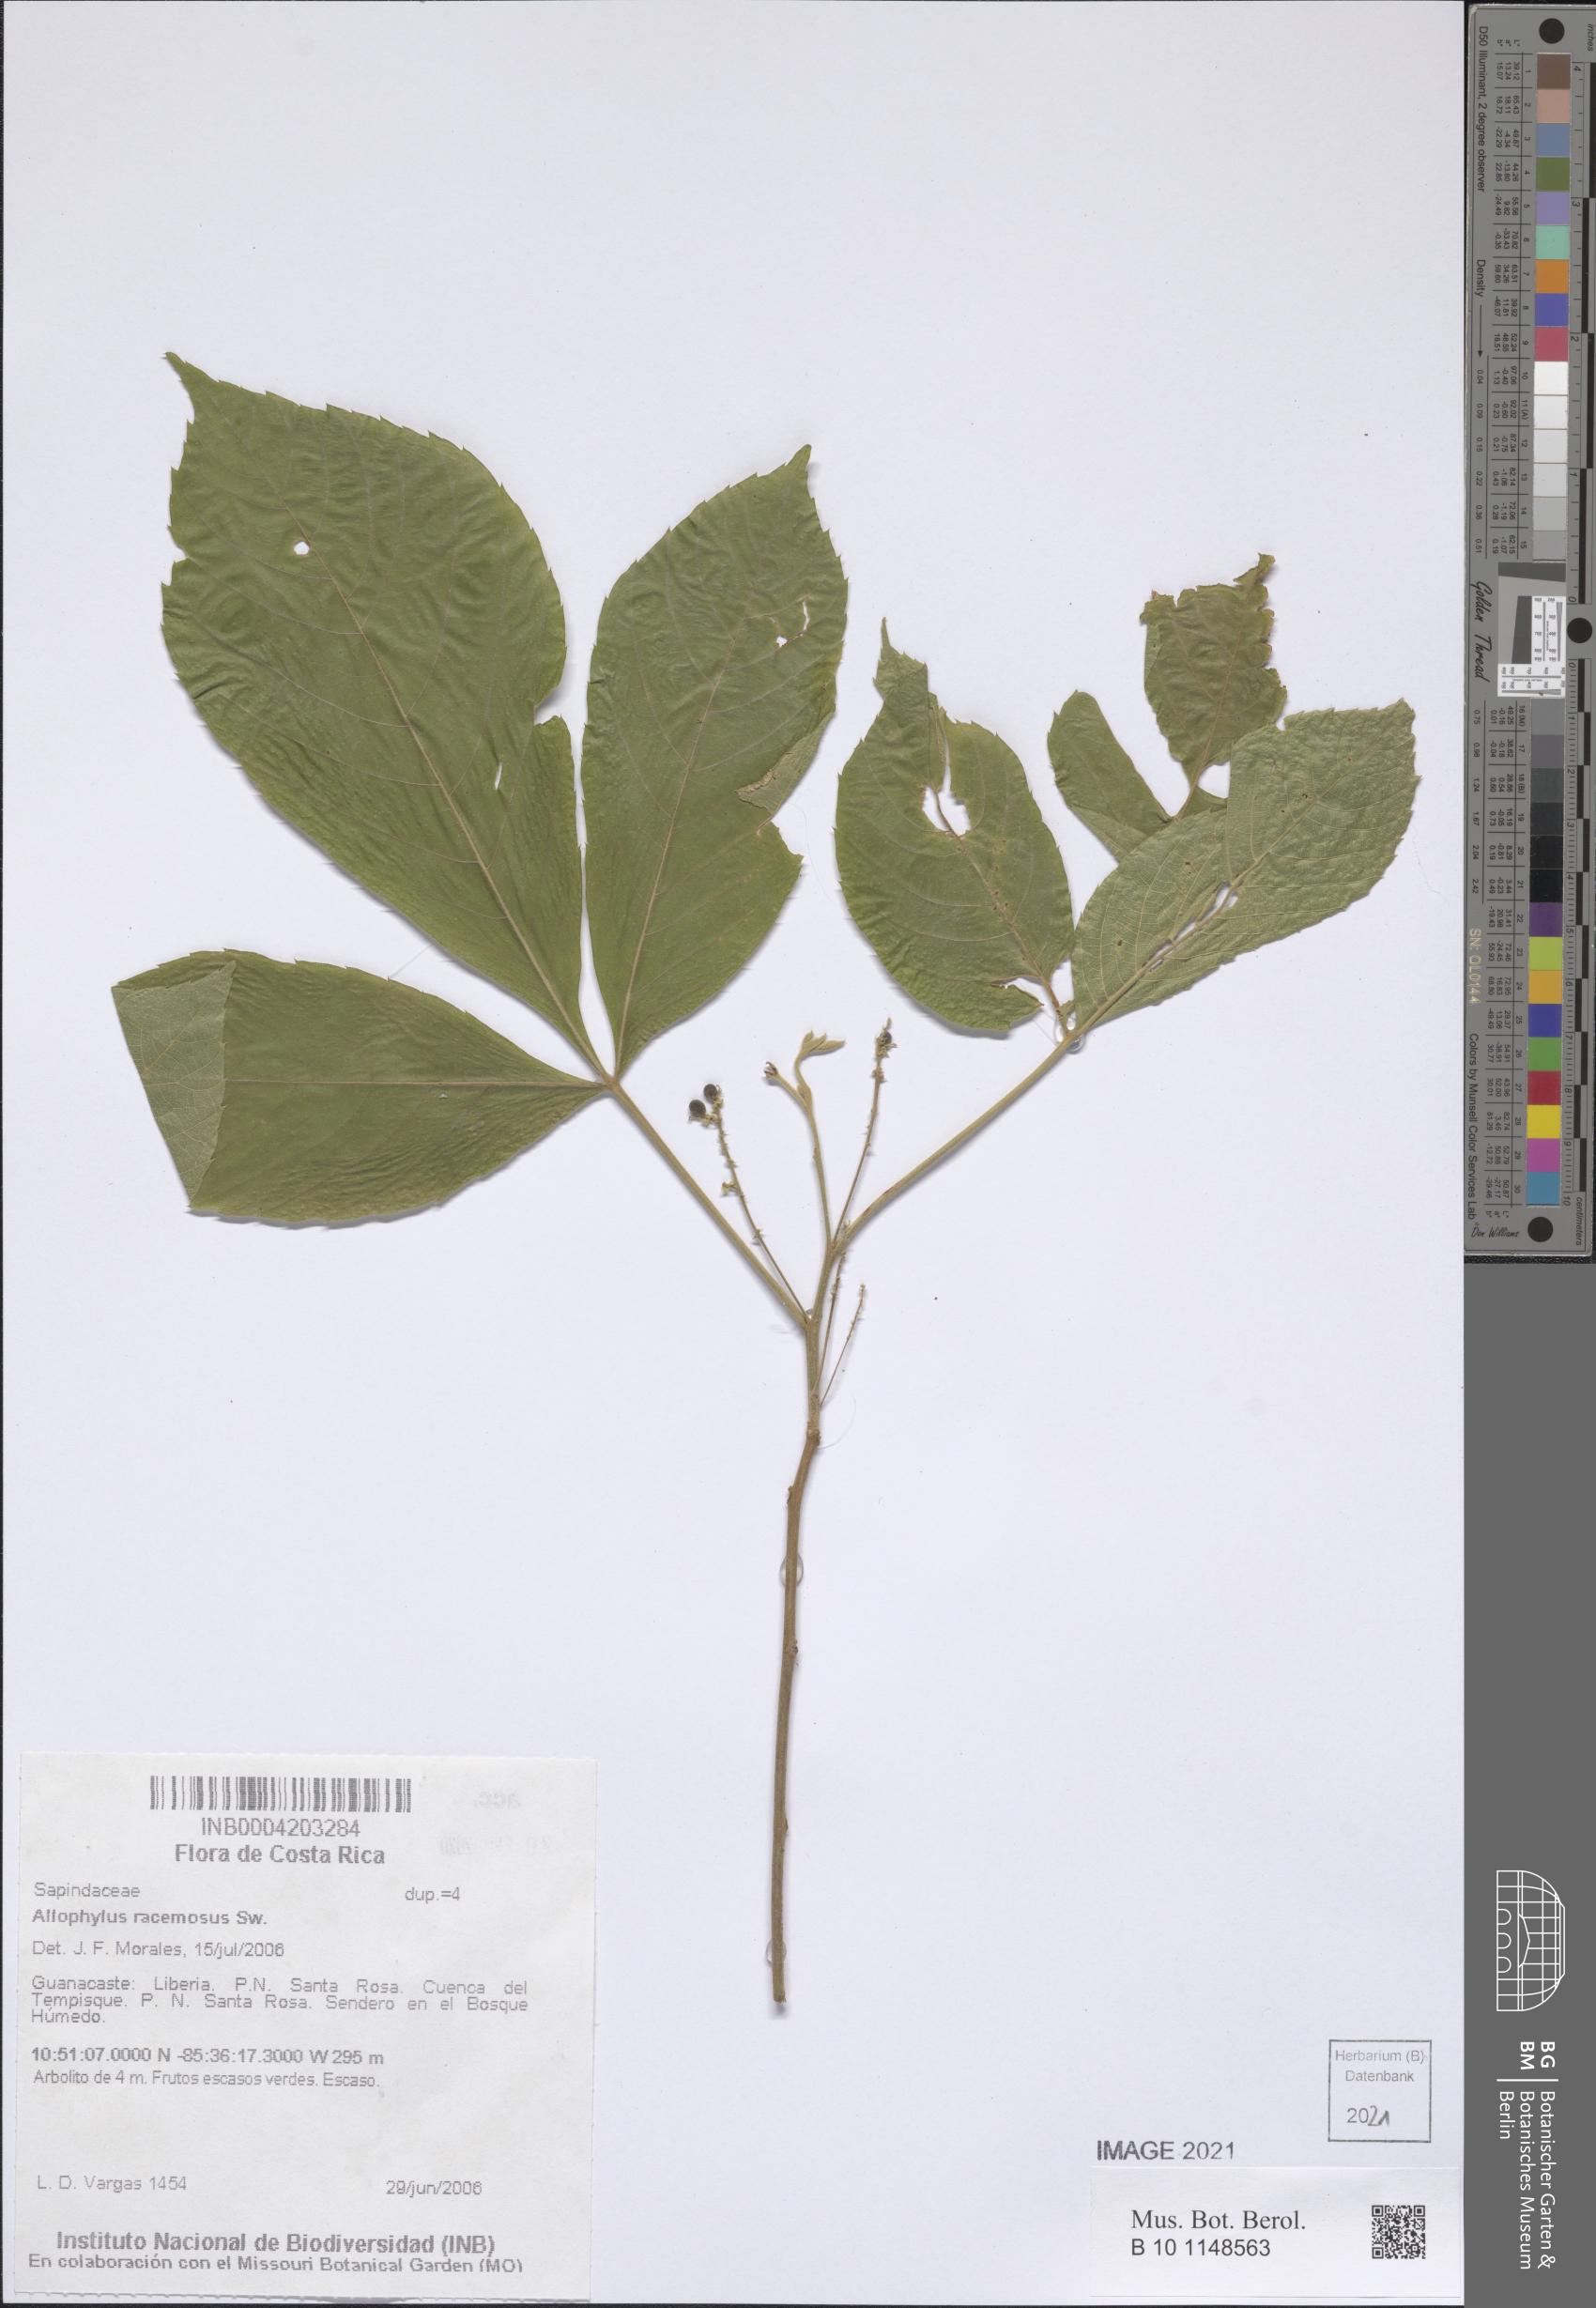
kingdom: Plantae
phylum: Tracheophyta
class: Magnoliopsida
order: Sapindales
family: Sapindaceae
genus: Allophylus
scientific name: Allophylus racemosus
